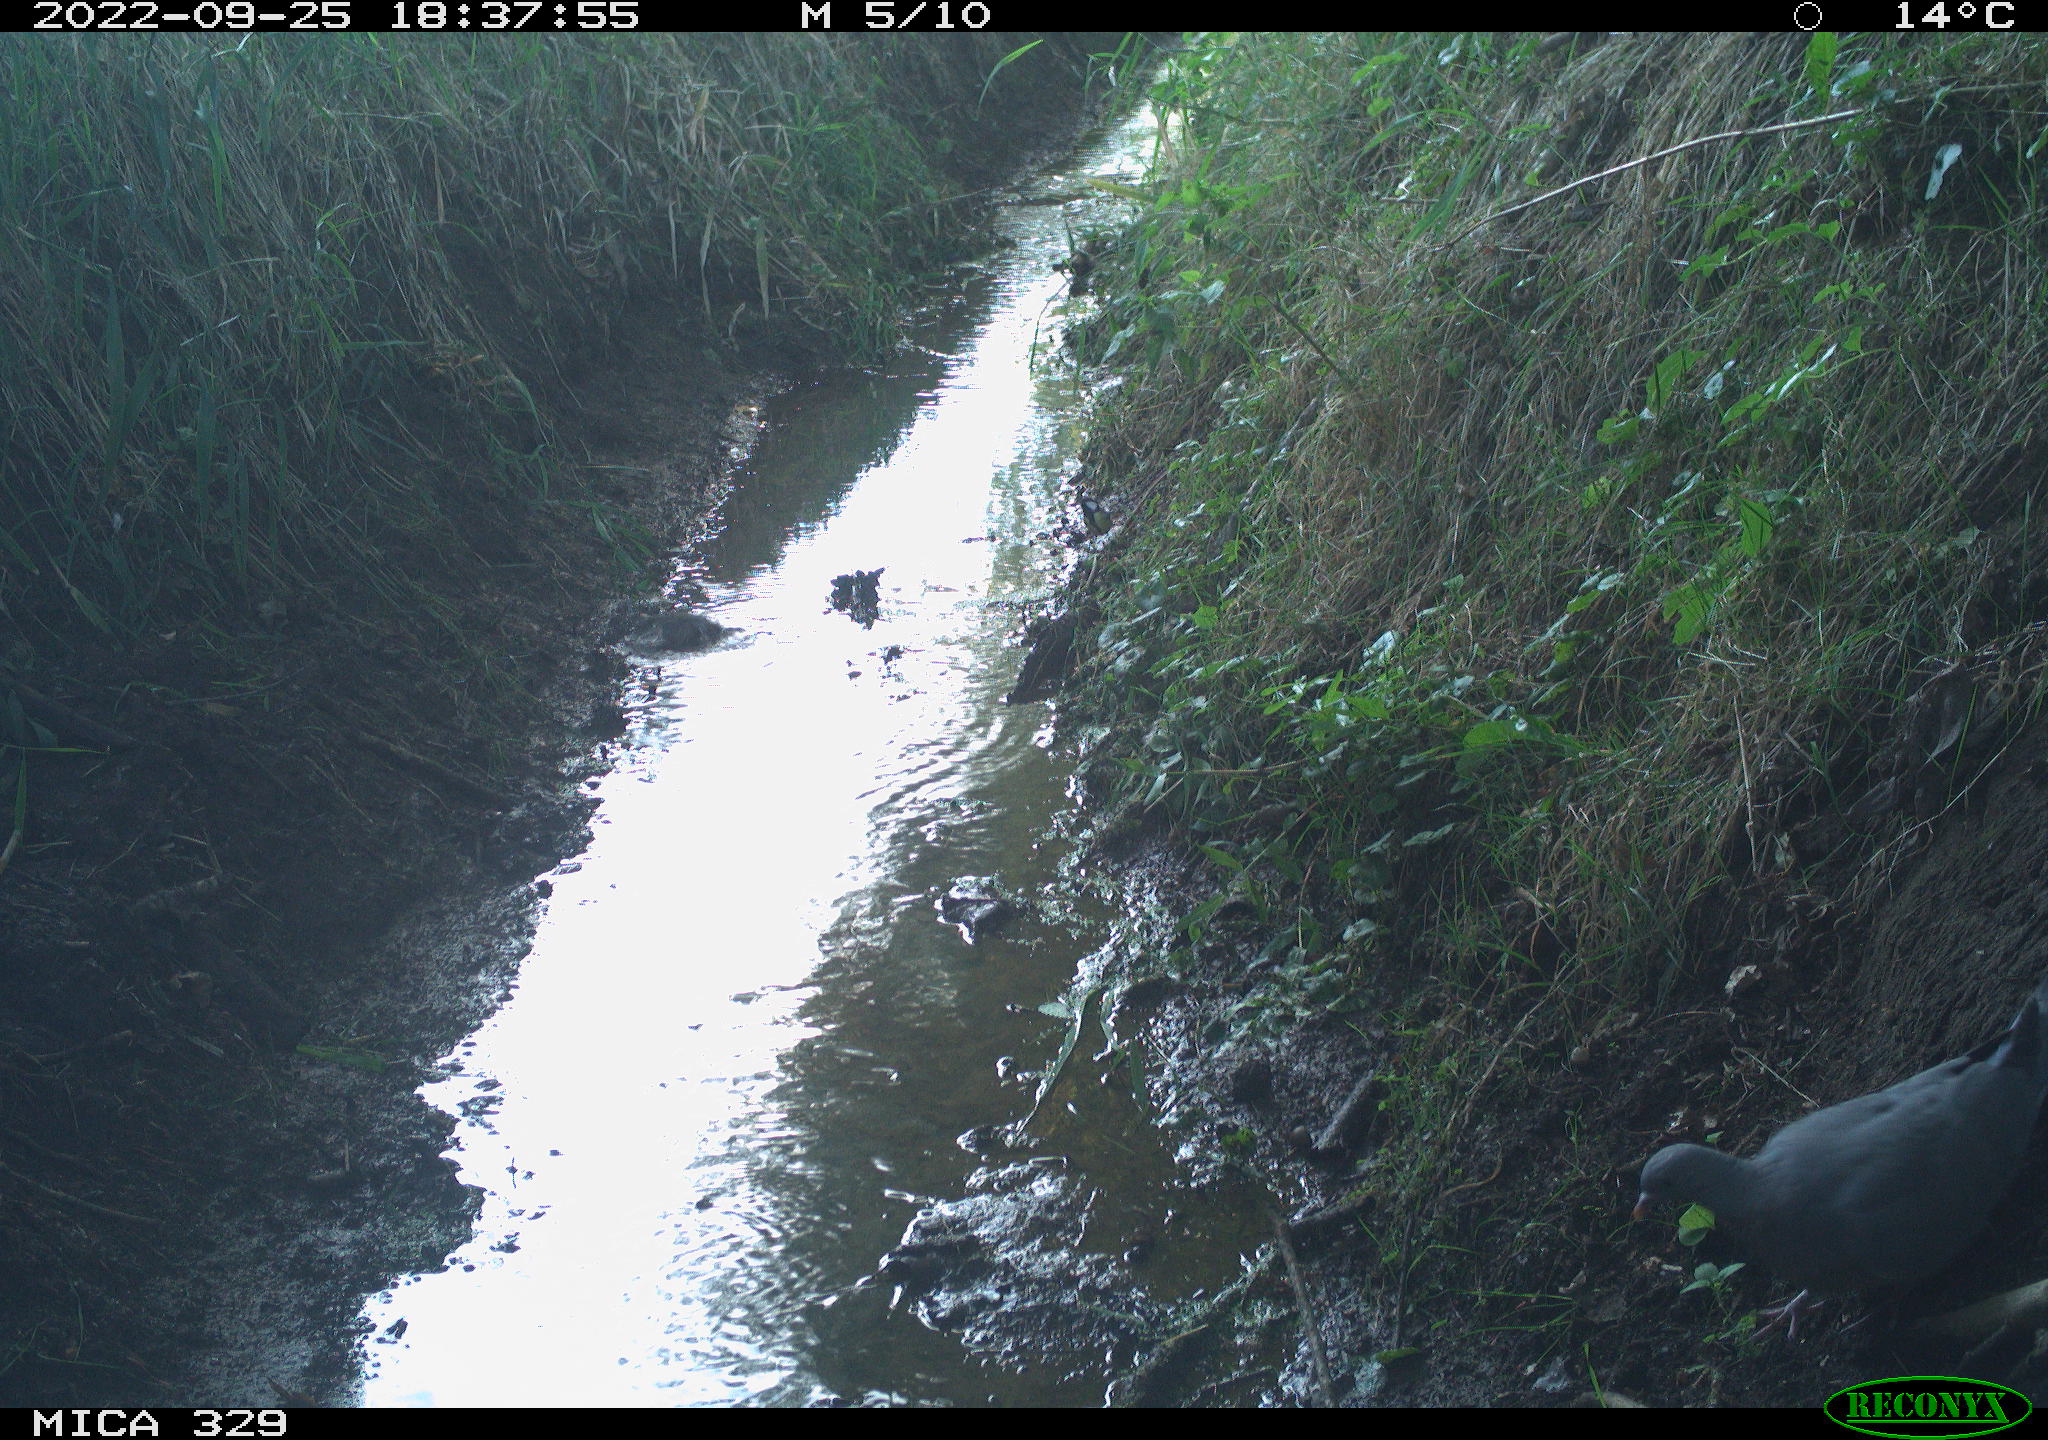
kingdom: Animalia
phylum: Chordata
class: Aves
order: Columbiformes
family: Columbidae
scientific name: Columbidae
